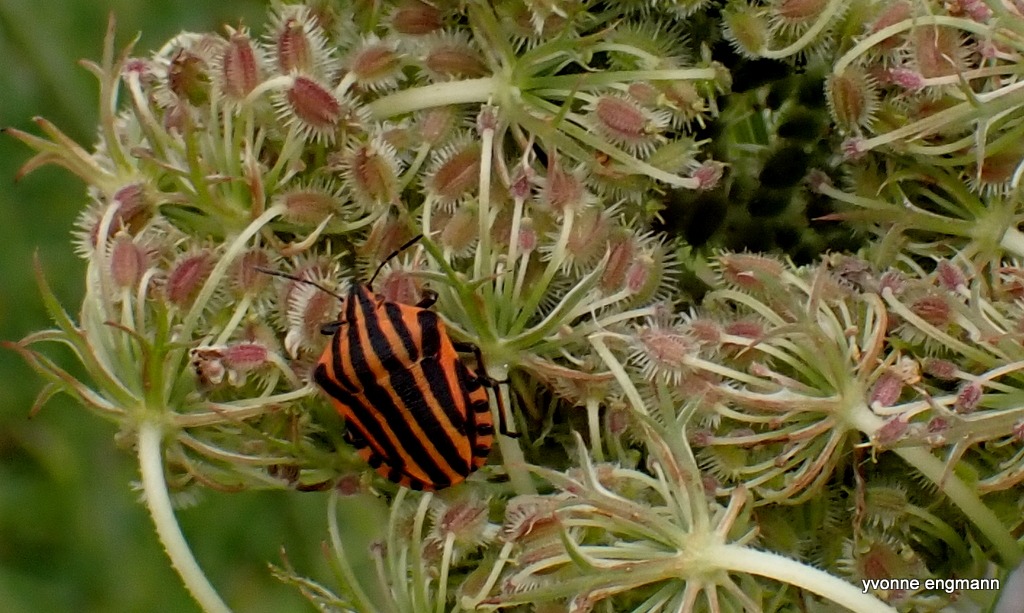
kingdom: Animalia
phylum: Arthropoda
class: Insecta
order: Hemiptera
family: Pentatomidae
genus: Graphosoma
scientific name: Graphosoma italicum
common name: Stribetæge
